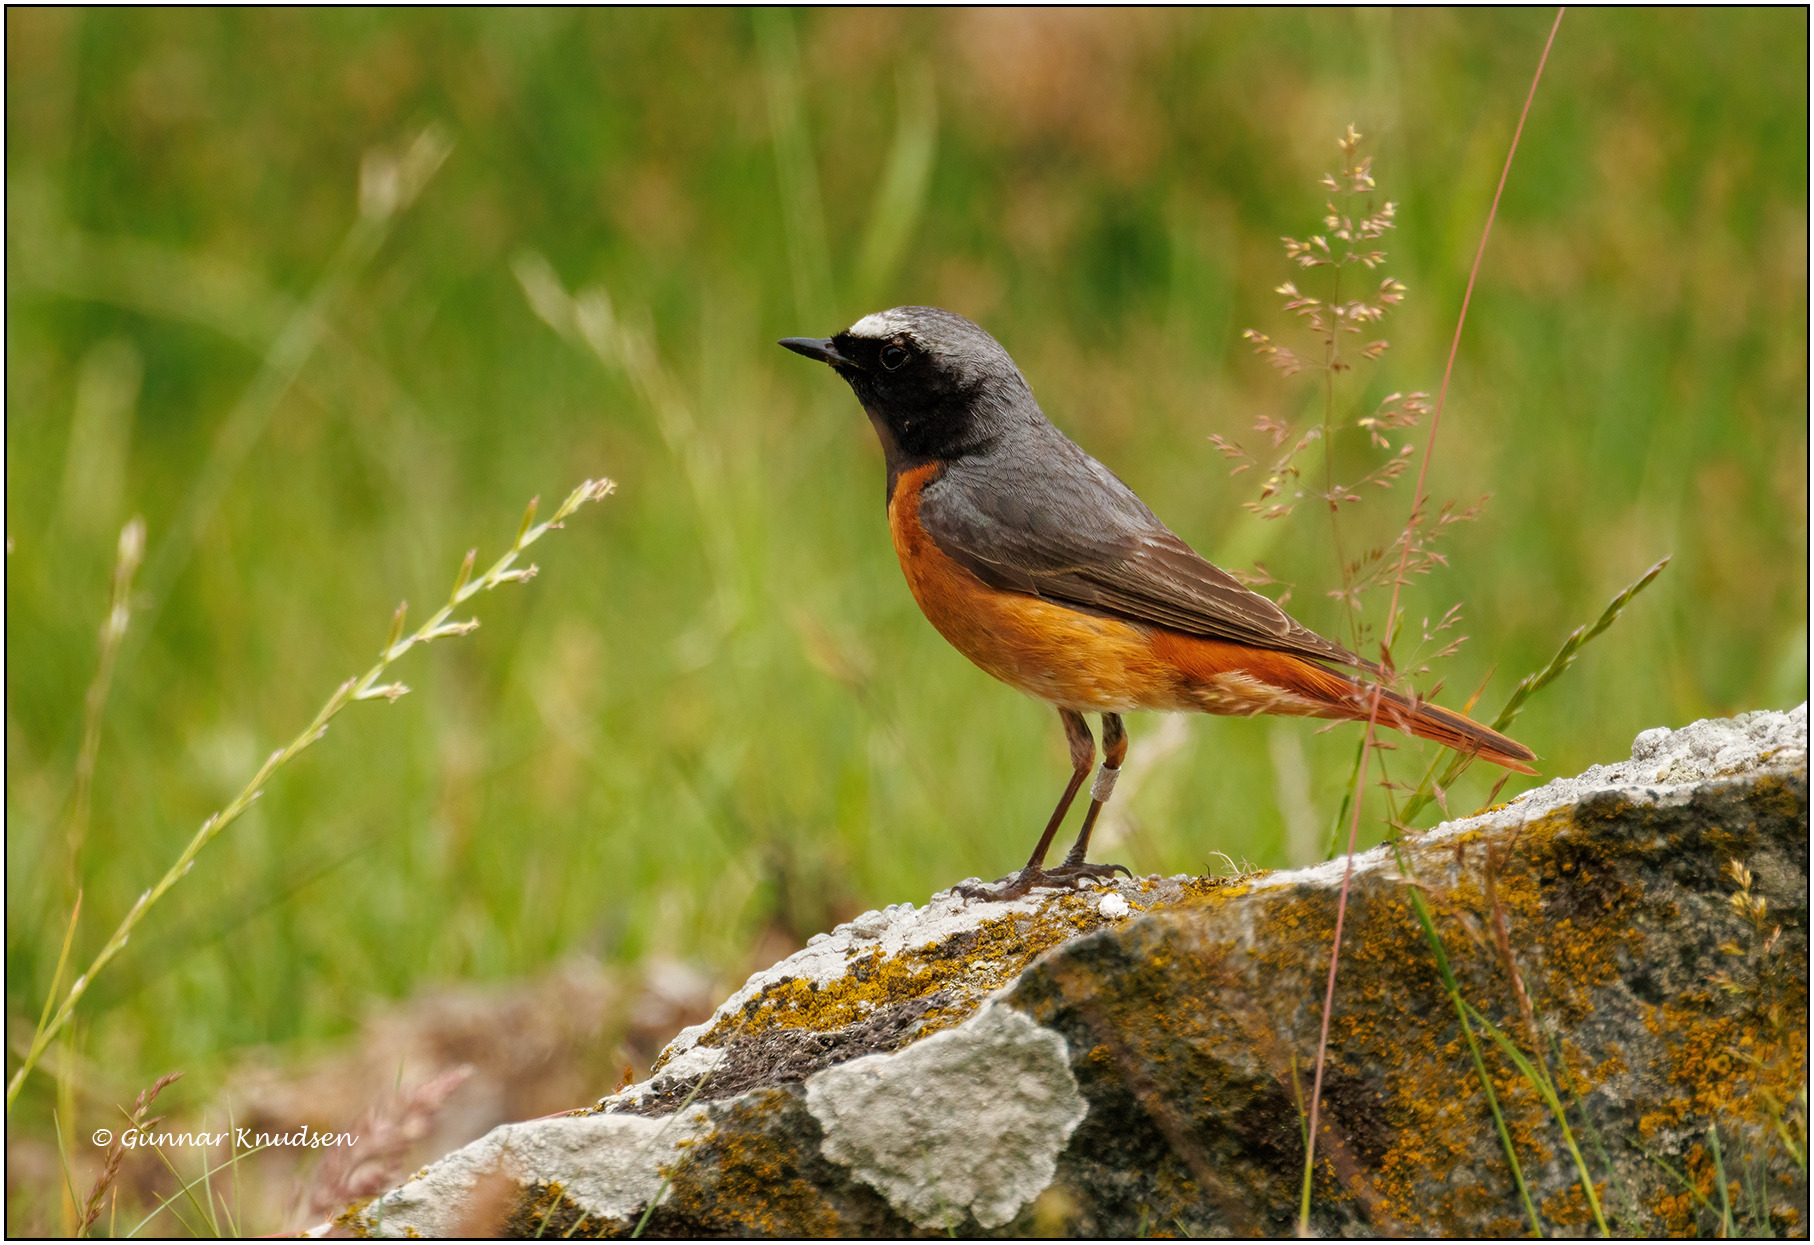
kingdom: Animalia
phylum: Chordata
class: Aves
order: Passeriformes
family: Muscicapidae
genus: Phoenicurus
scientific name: Phoenicurus phoenicurus
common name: Rødstjert
